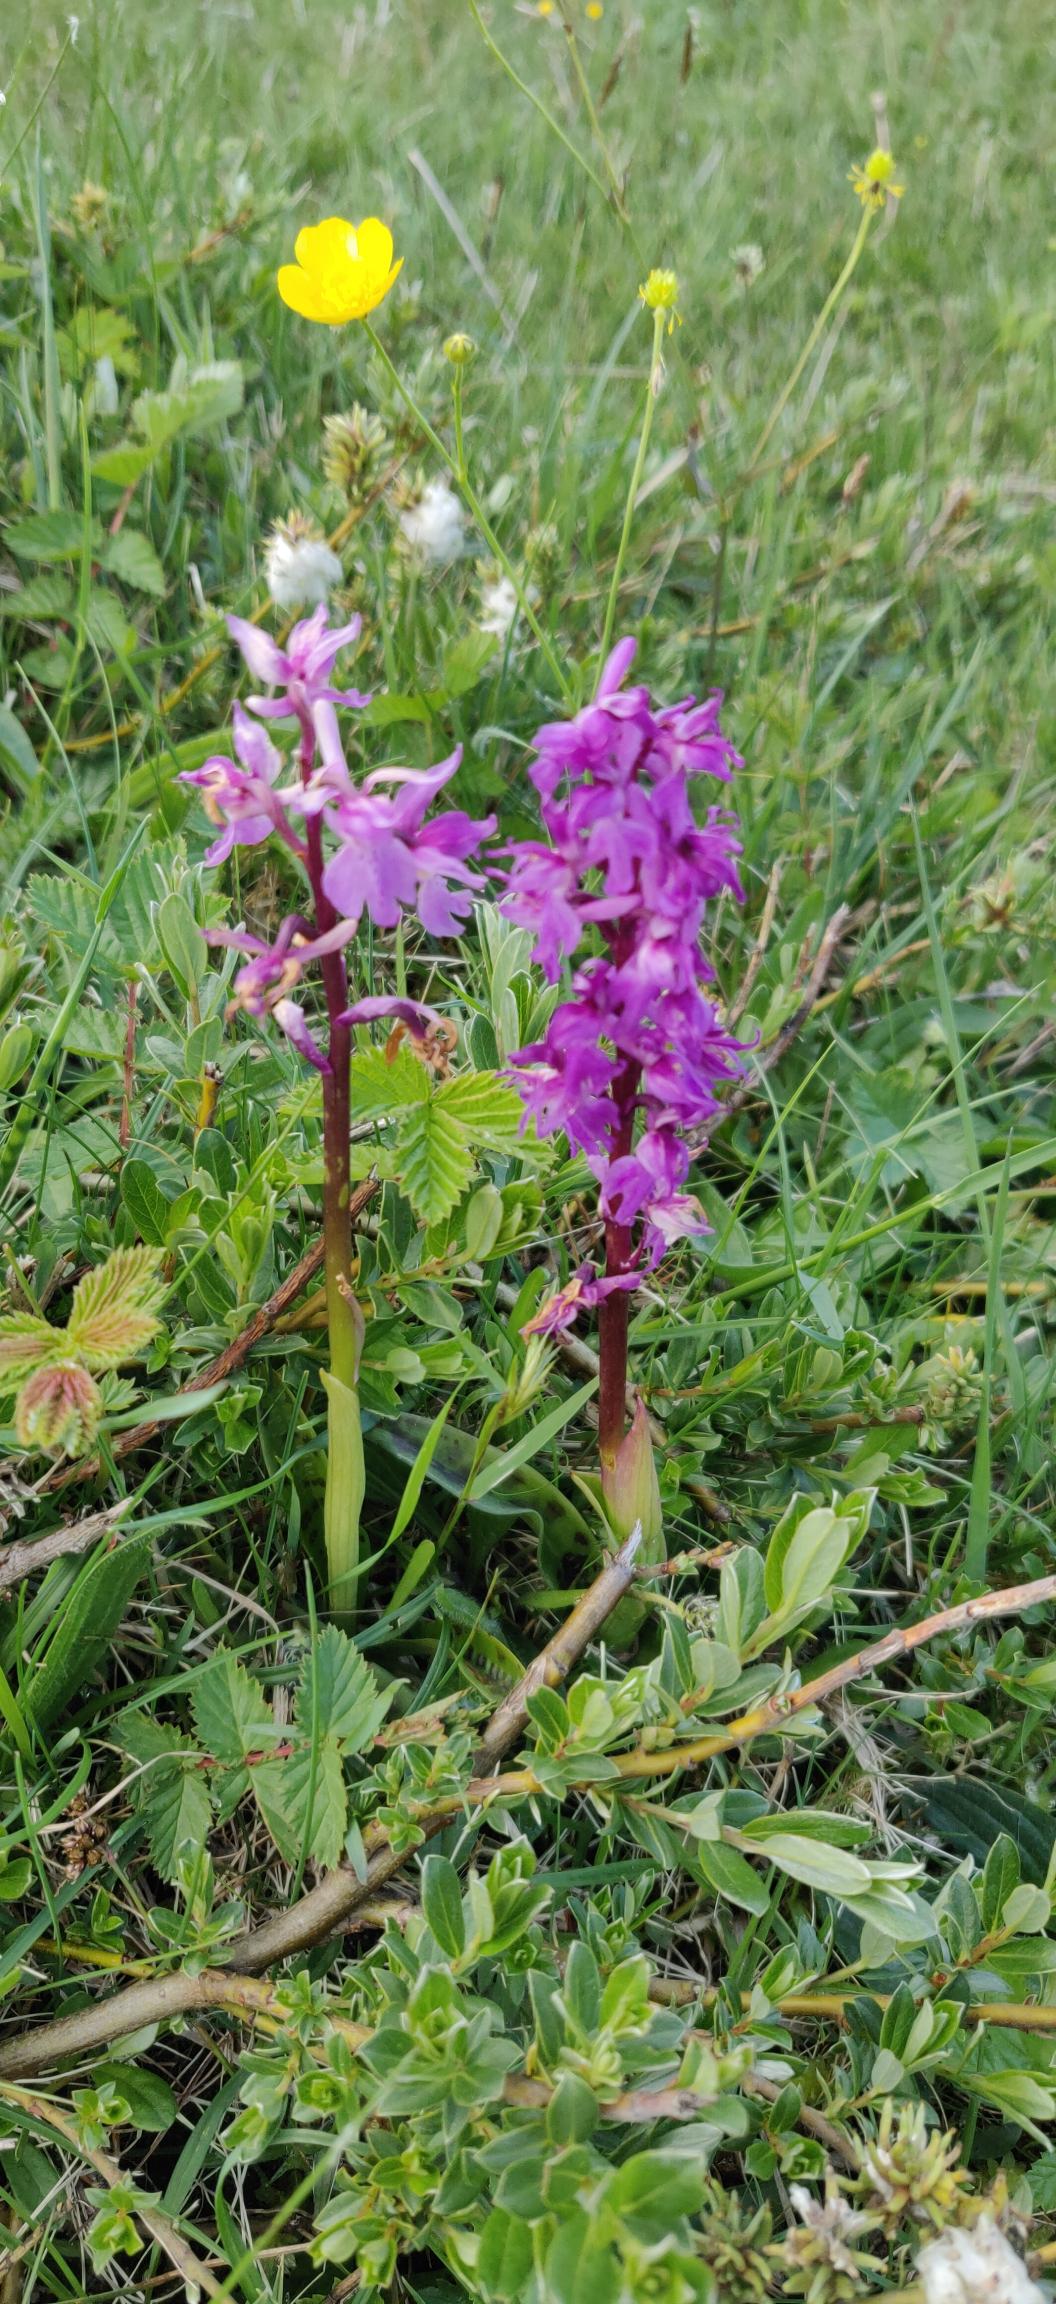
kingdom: Plantae
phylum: Tracheophyta
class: Liliopsida
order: Asparagales
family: Orchidaceae
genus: Orchis
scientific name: Orchis mascula
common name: Tyndakset gøgeurt
